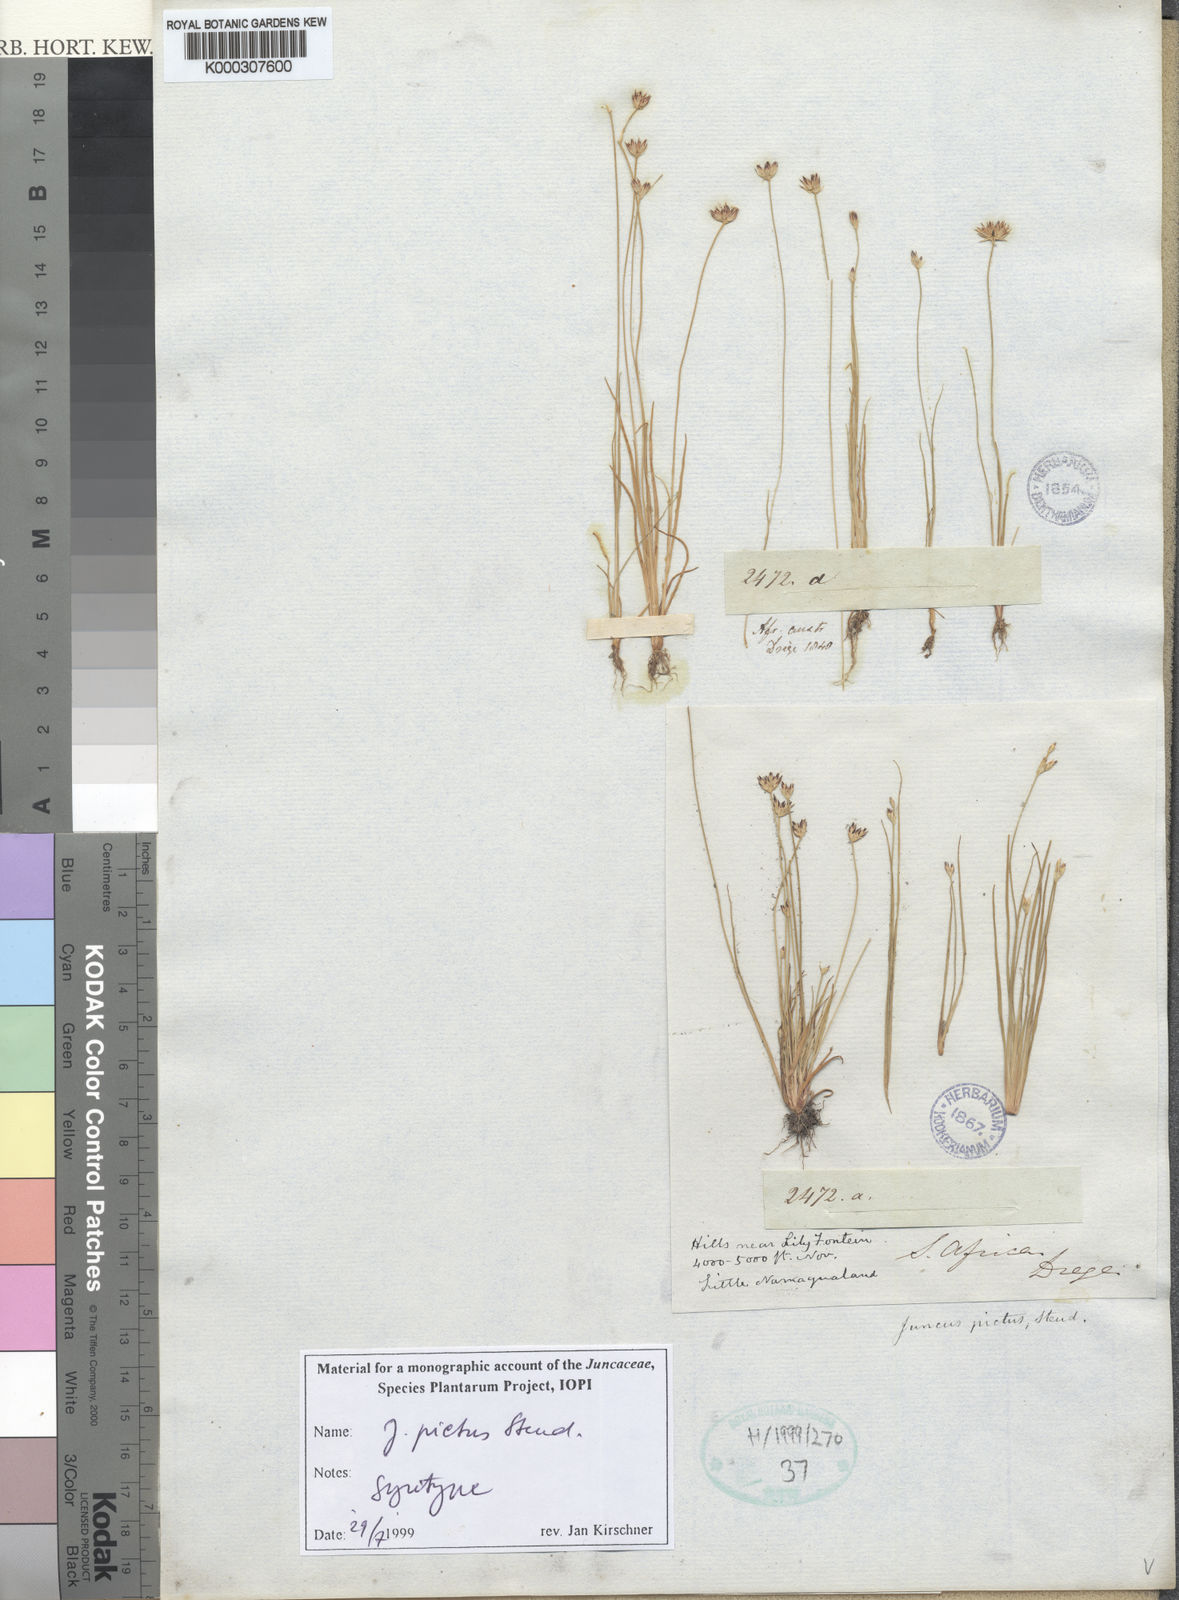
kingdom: Plantae
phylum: Tracheophyta
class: Liliopsida
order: Poales
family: Juncaceae
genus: Juncus
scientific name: Juncus pictus
